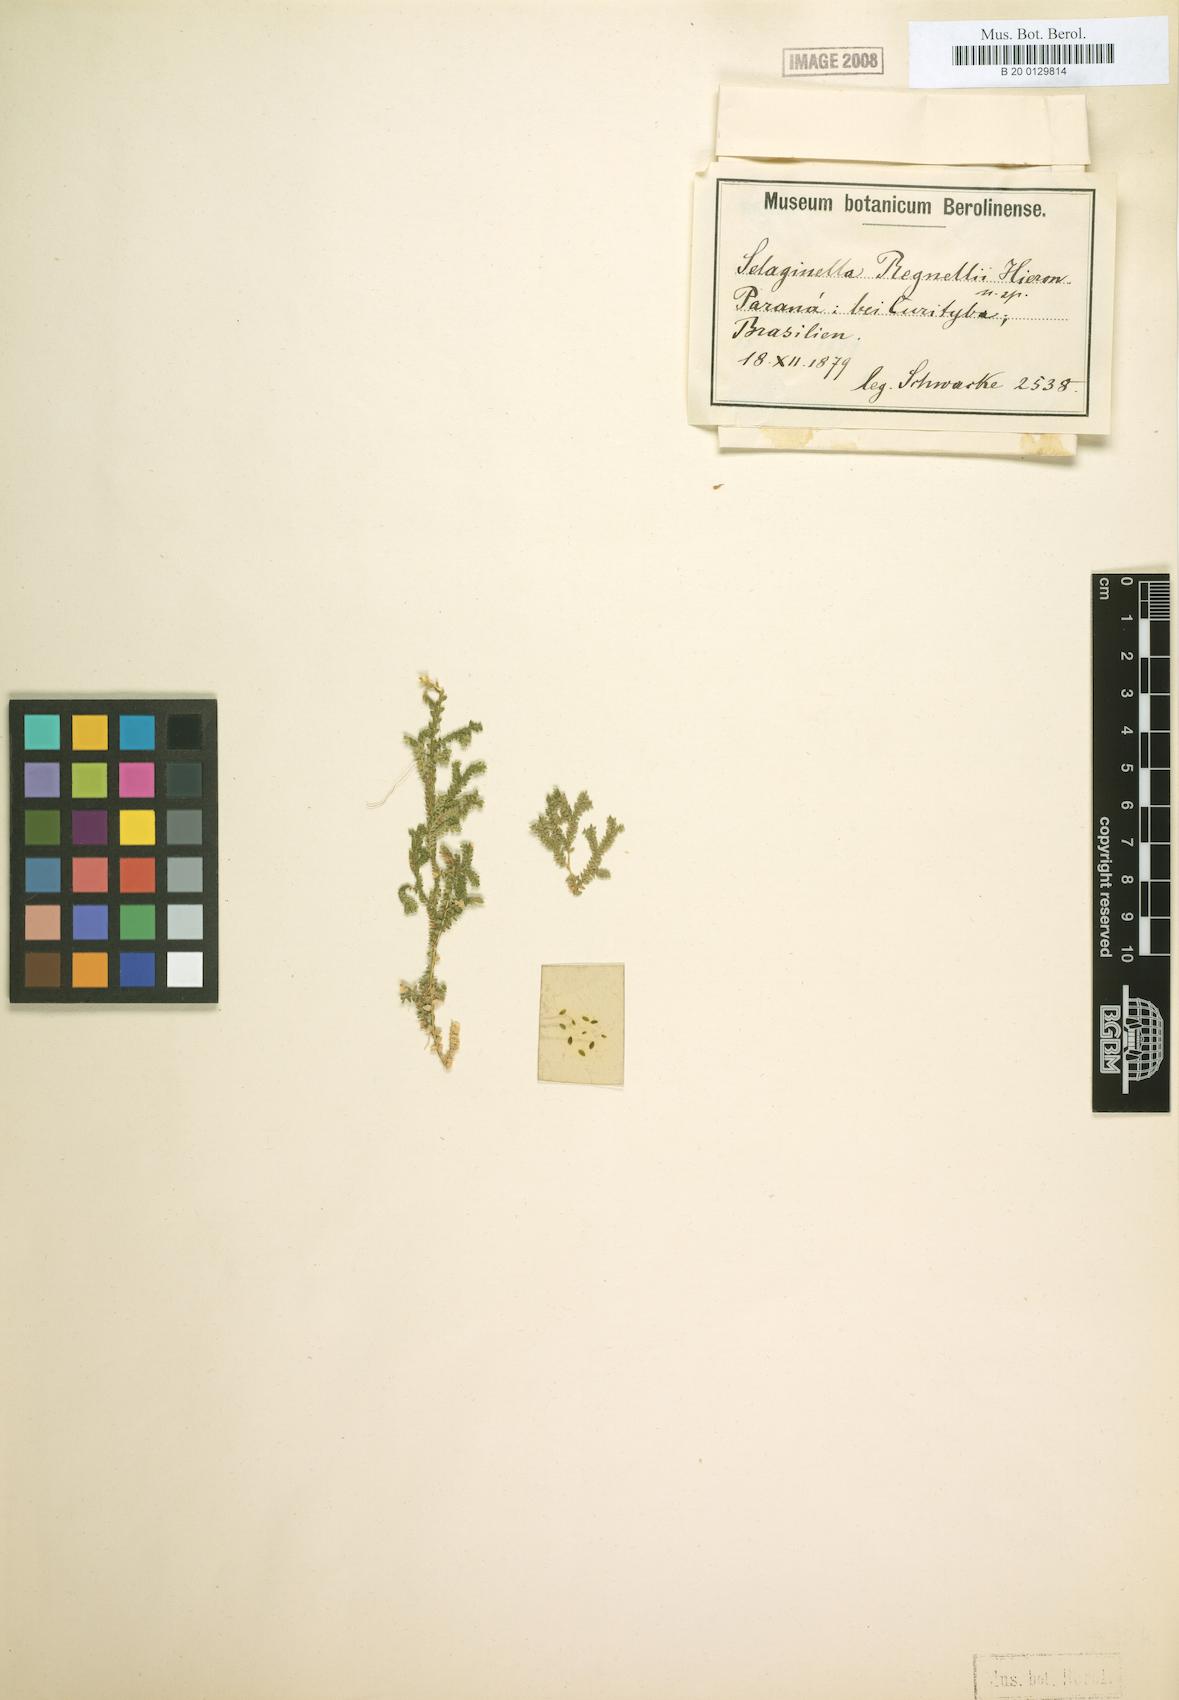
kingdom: Plantae
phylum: Tracheophyta
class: Lycopodiopsida
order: Selaginellales
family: Selaginellaceae
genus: Selaginella
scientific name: Selaginella
